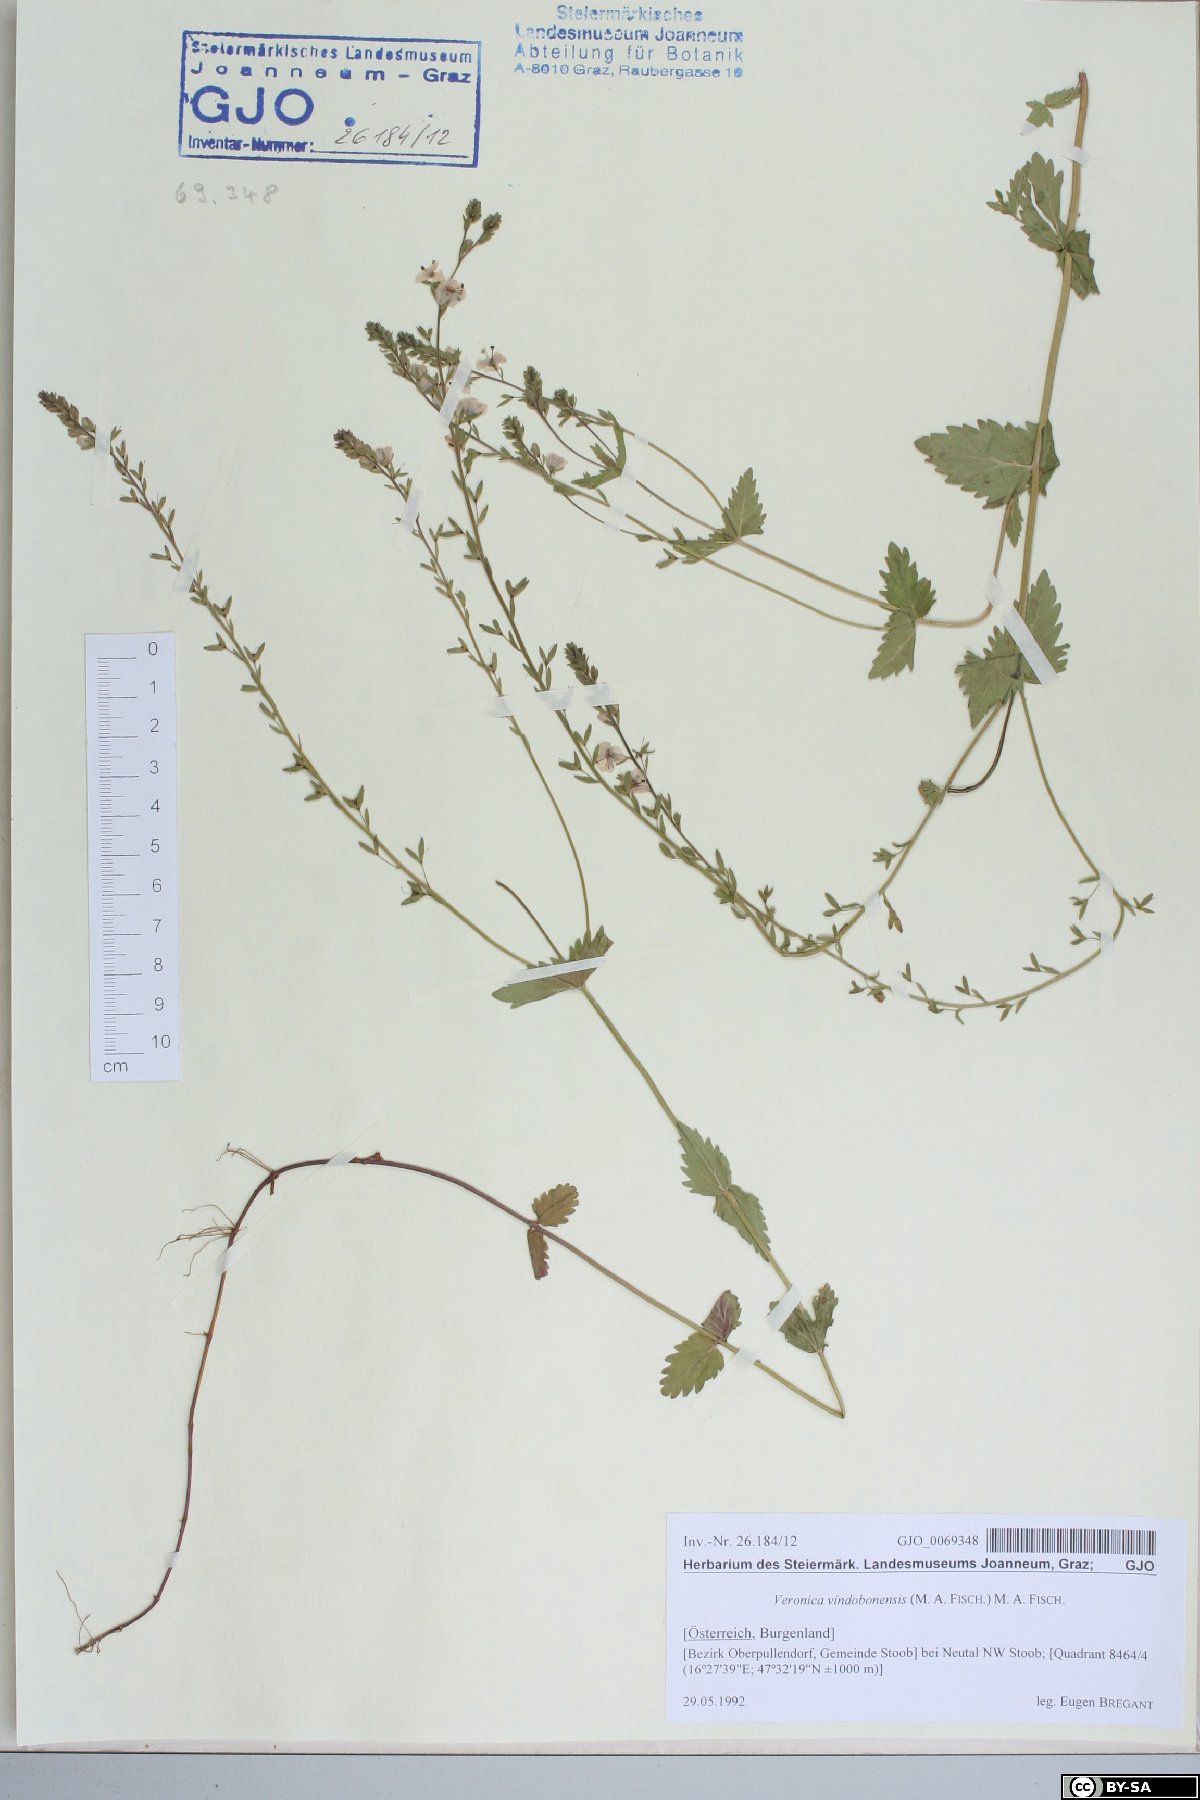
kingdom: Plantae
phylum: Tracheophyta
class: Magnoliopsida
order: Lamiales
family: Plantaginaceae
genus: Veronica
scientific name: Veronica vindobonensis
